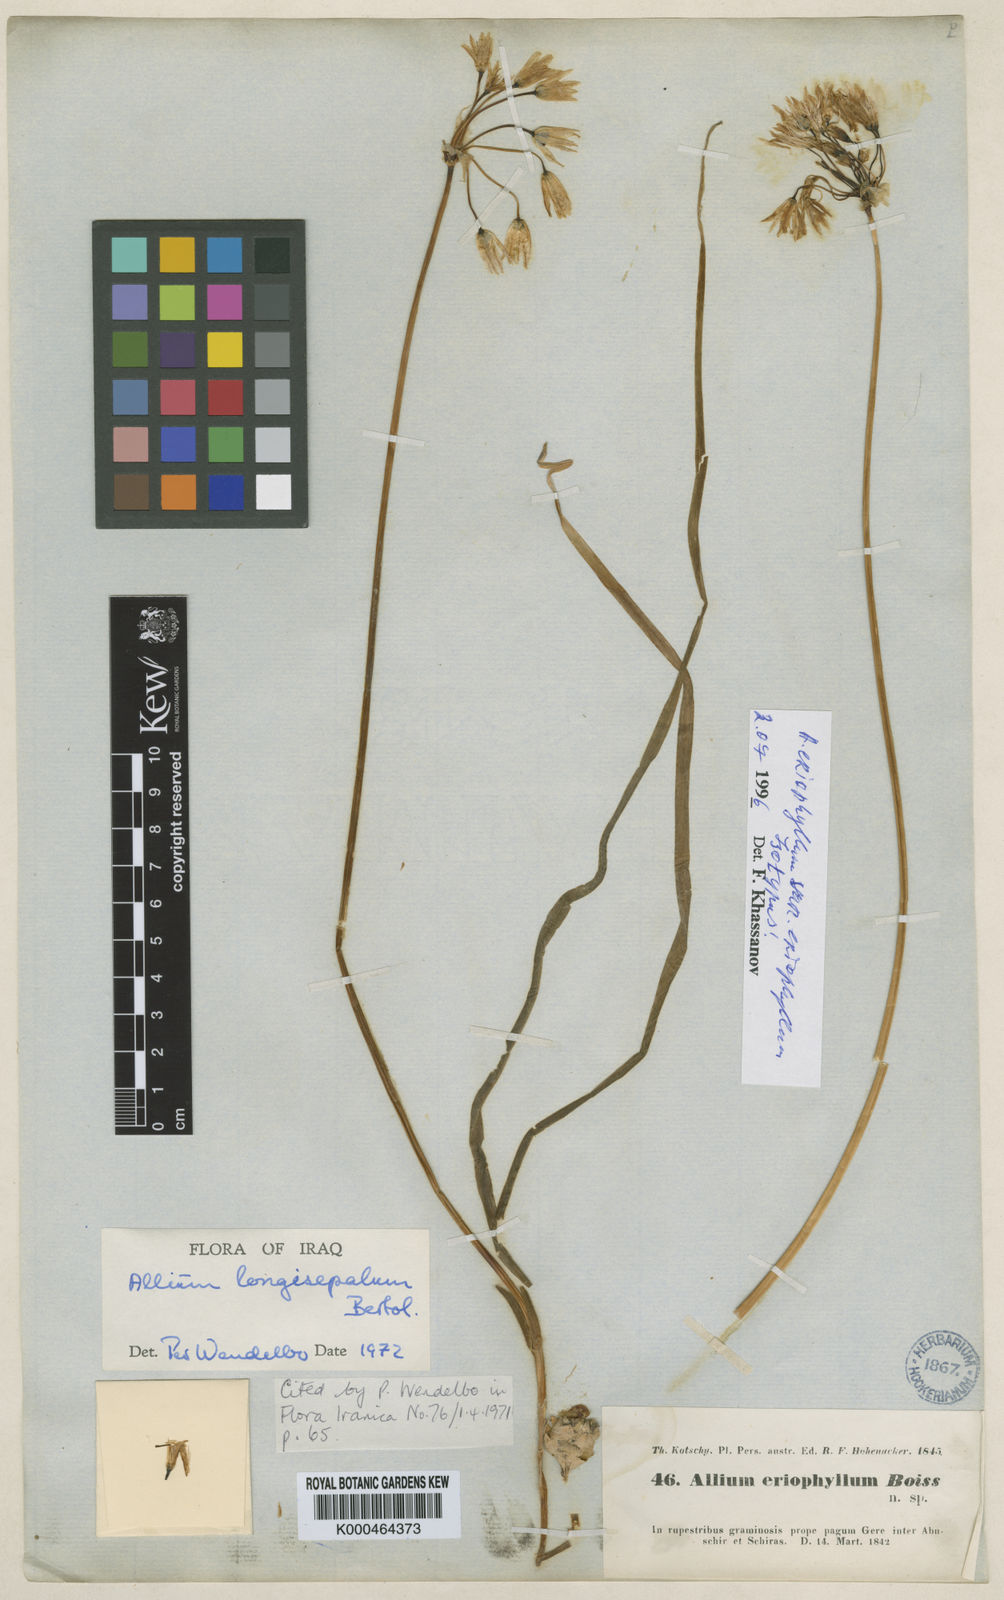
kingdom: Plantae
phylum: Tracheophyta
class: Liliopsida
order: Asparagales
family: Amaryllidaceae
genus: Allium
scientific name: Allium longisepalum
